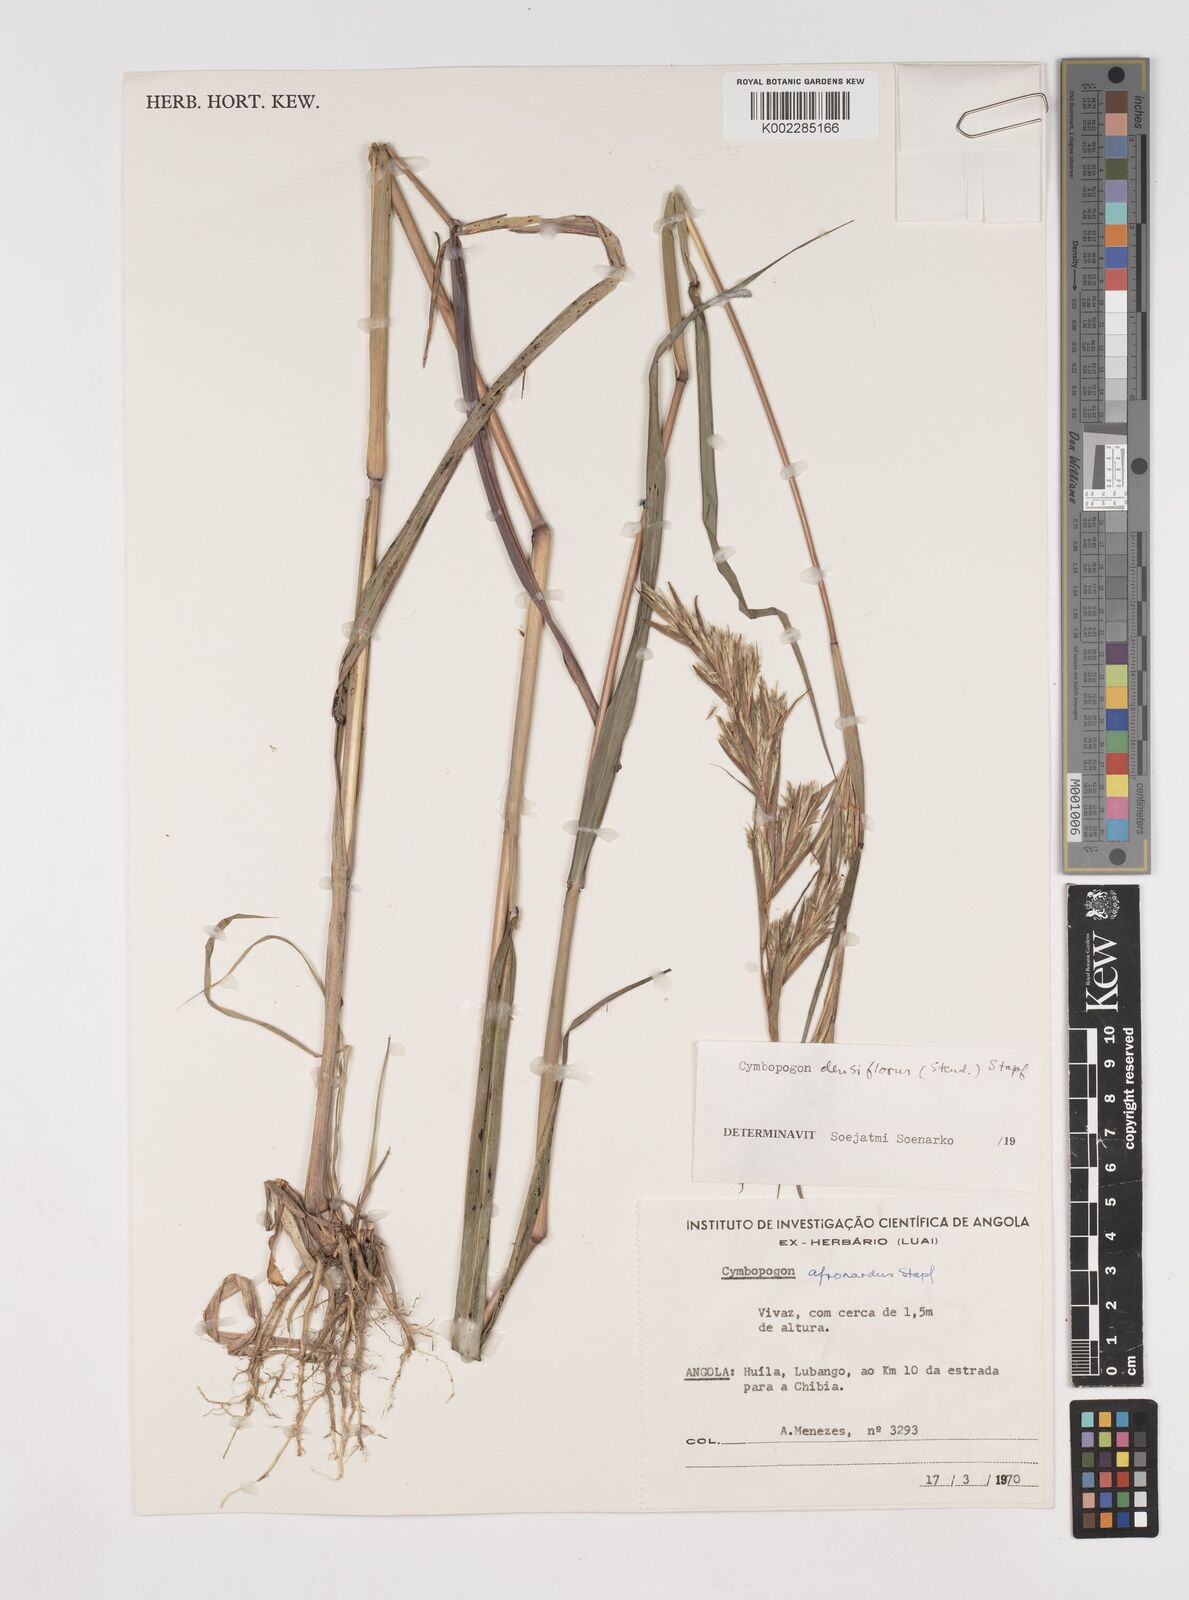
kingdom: Plantae
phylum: Tracheophyta
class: Liliopsida
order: Poales
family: Poaceae
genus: Cymbopogon
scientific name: Cymbopogon densiflorus
